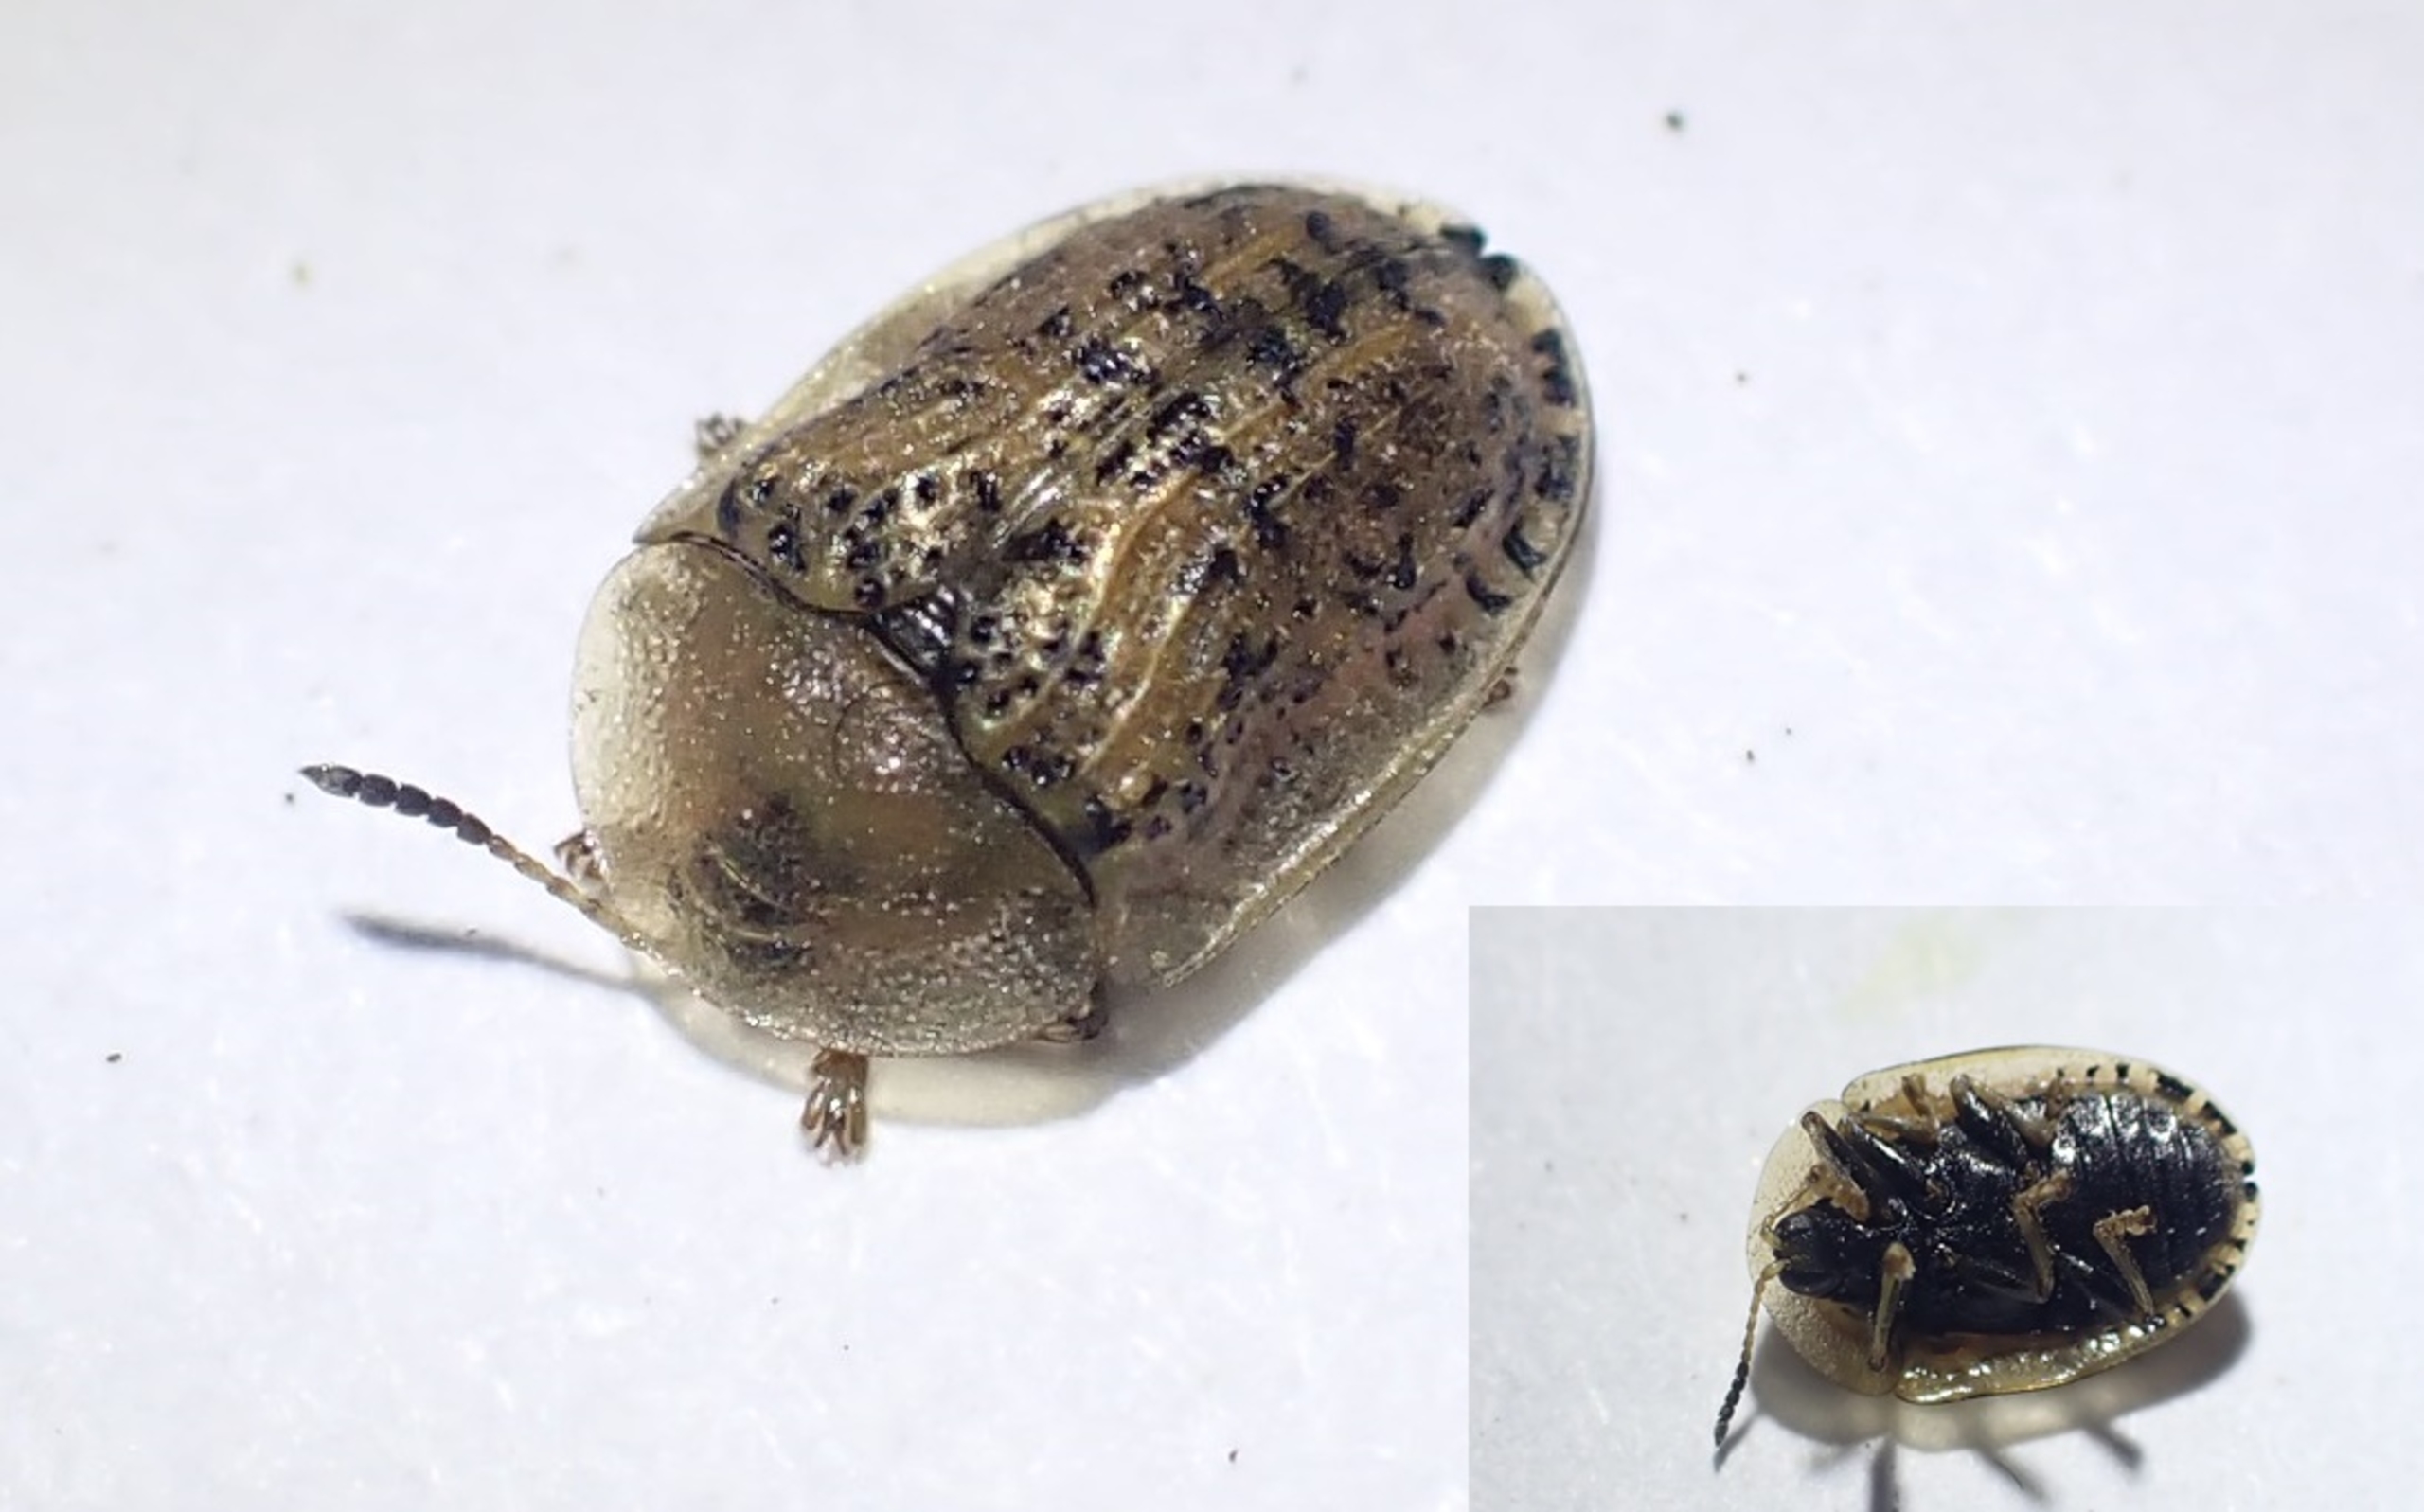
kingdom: Animalia
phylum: Arthropoda
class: Insecta
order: Coleoptera
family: Chrysomelidae
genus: Cassida
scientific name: Cassida nebulosa
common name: Plettet skjoldbille
